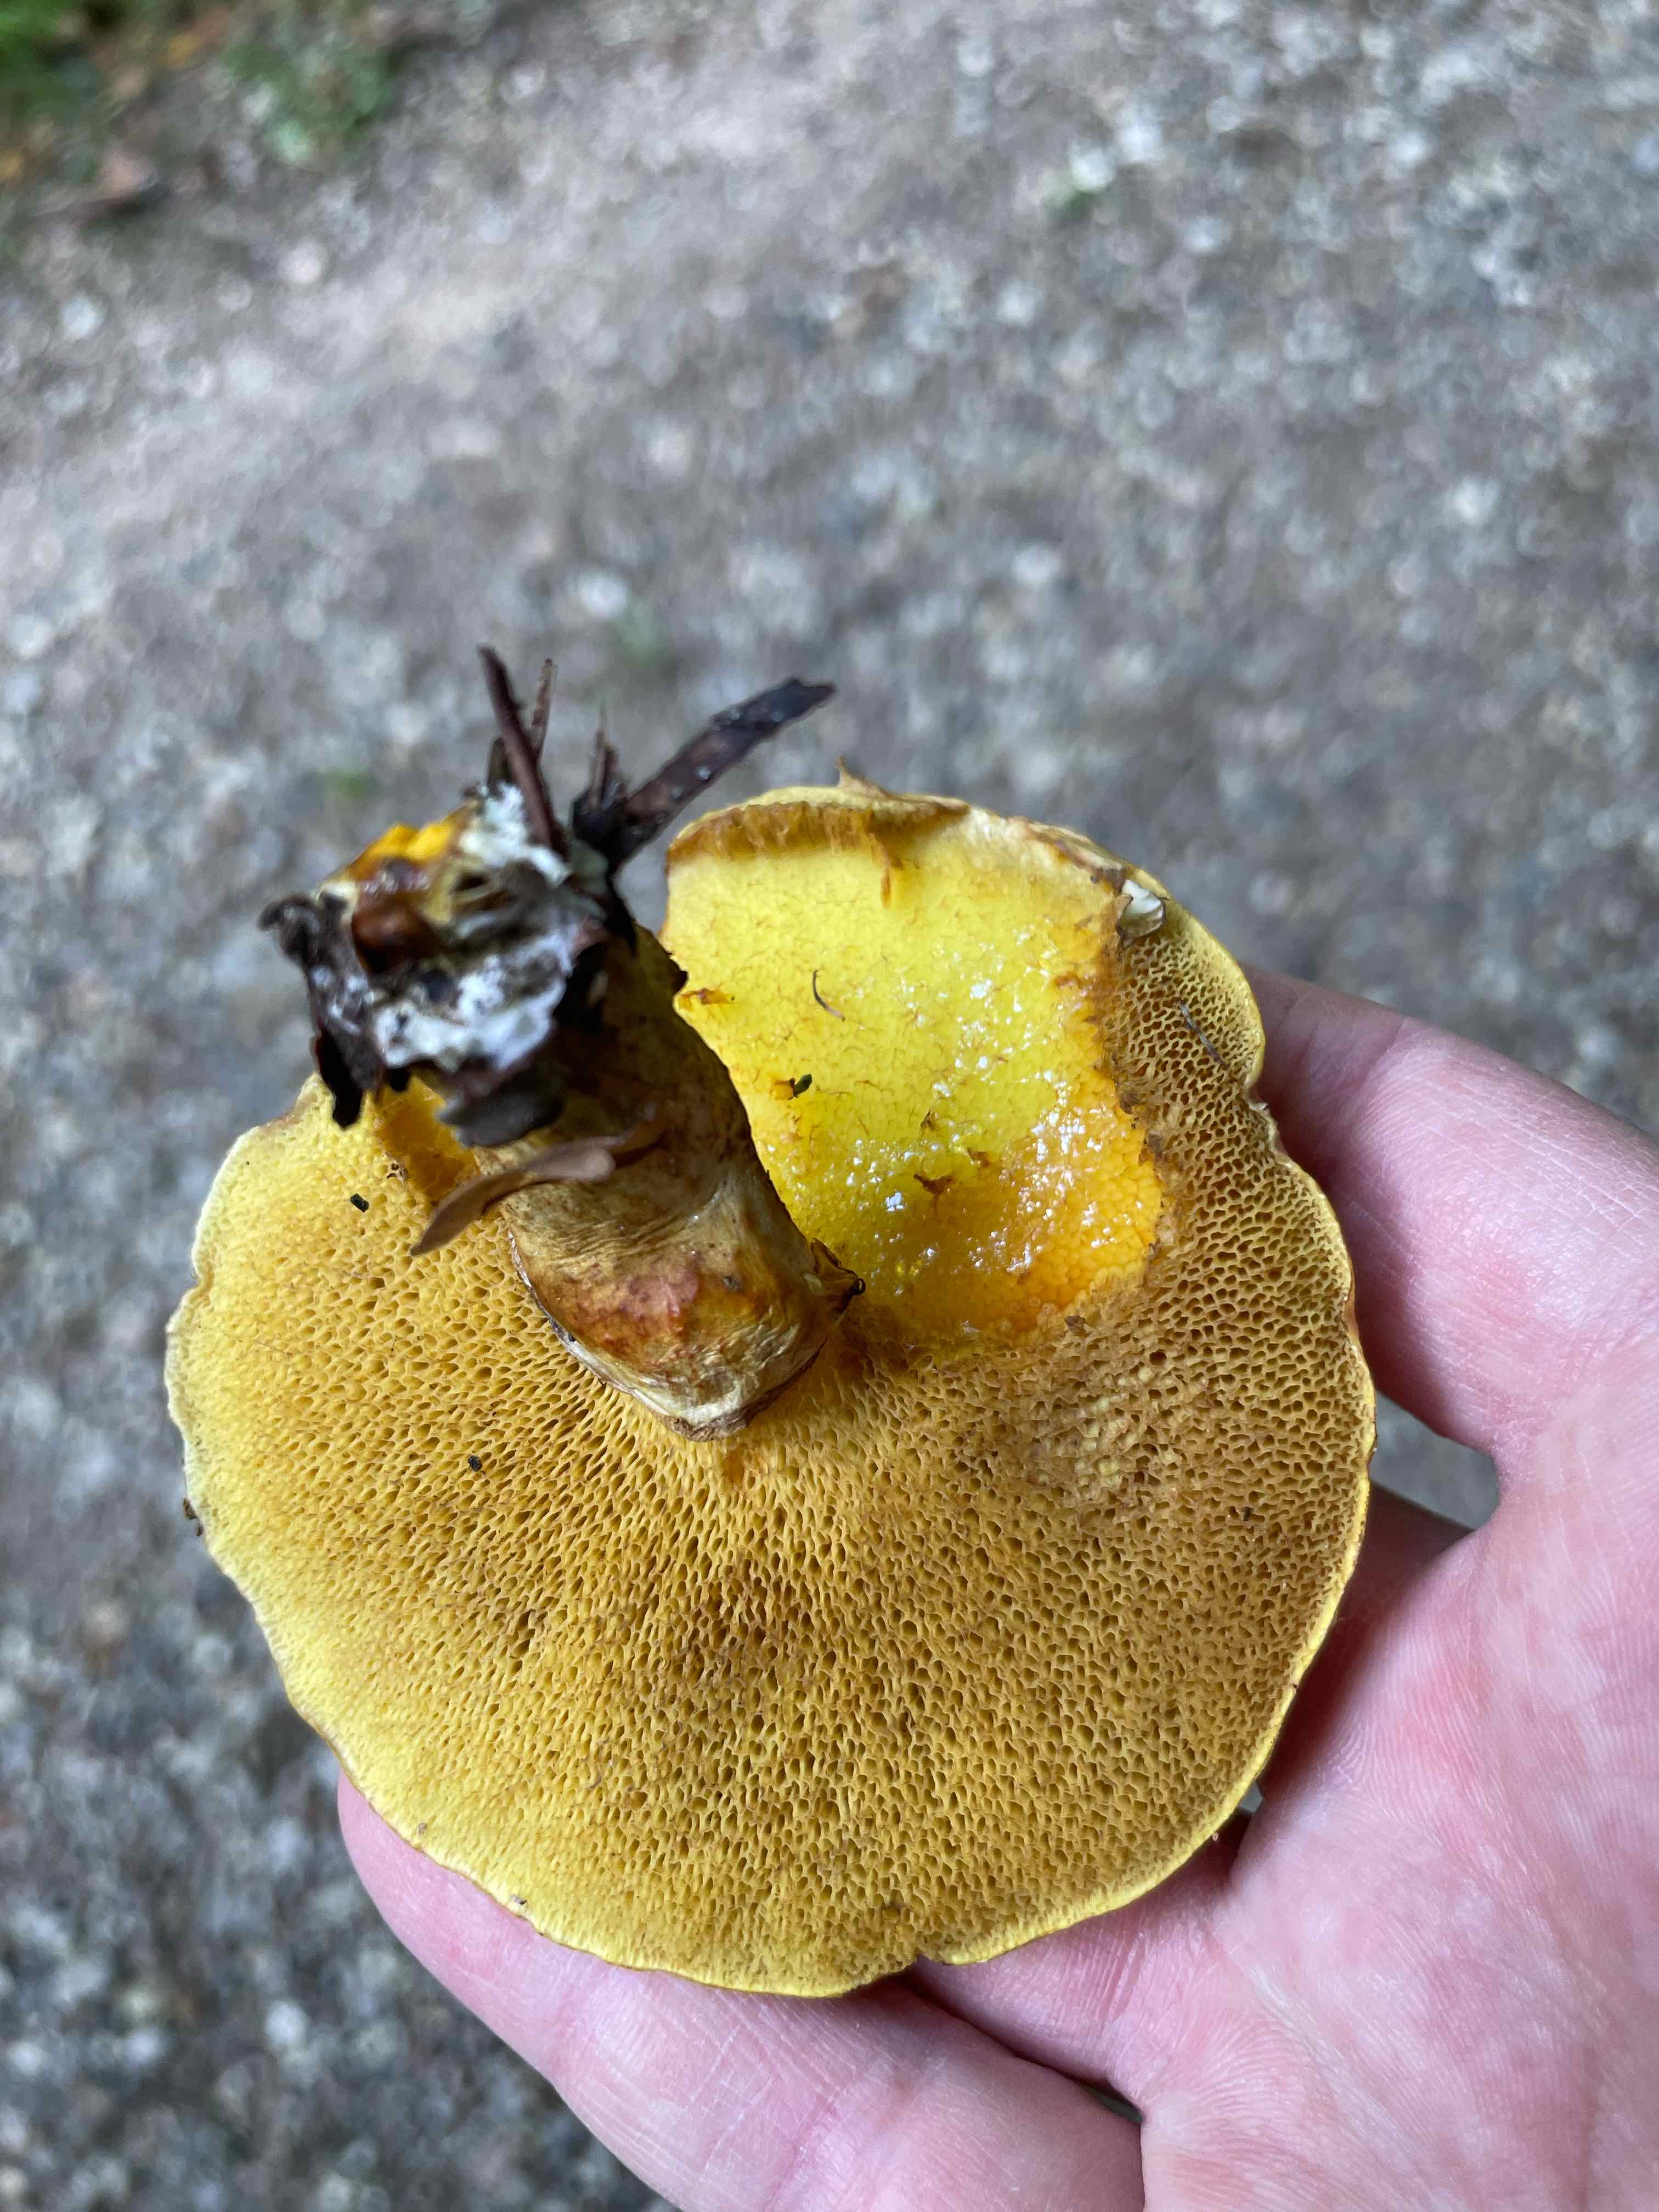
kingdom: Fungi
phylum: Basidiomycota
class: Agaricomycetes
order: Boletales
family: Suillaceae
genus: Suillus
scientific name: Suillus grevillei
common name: lærke-slimrørhat
